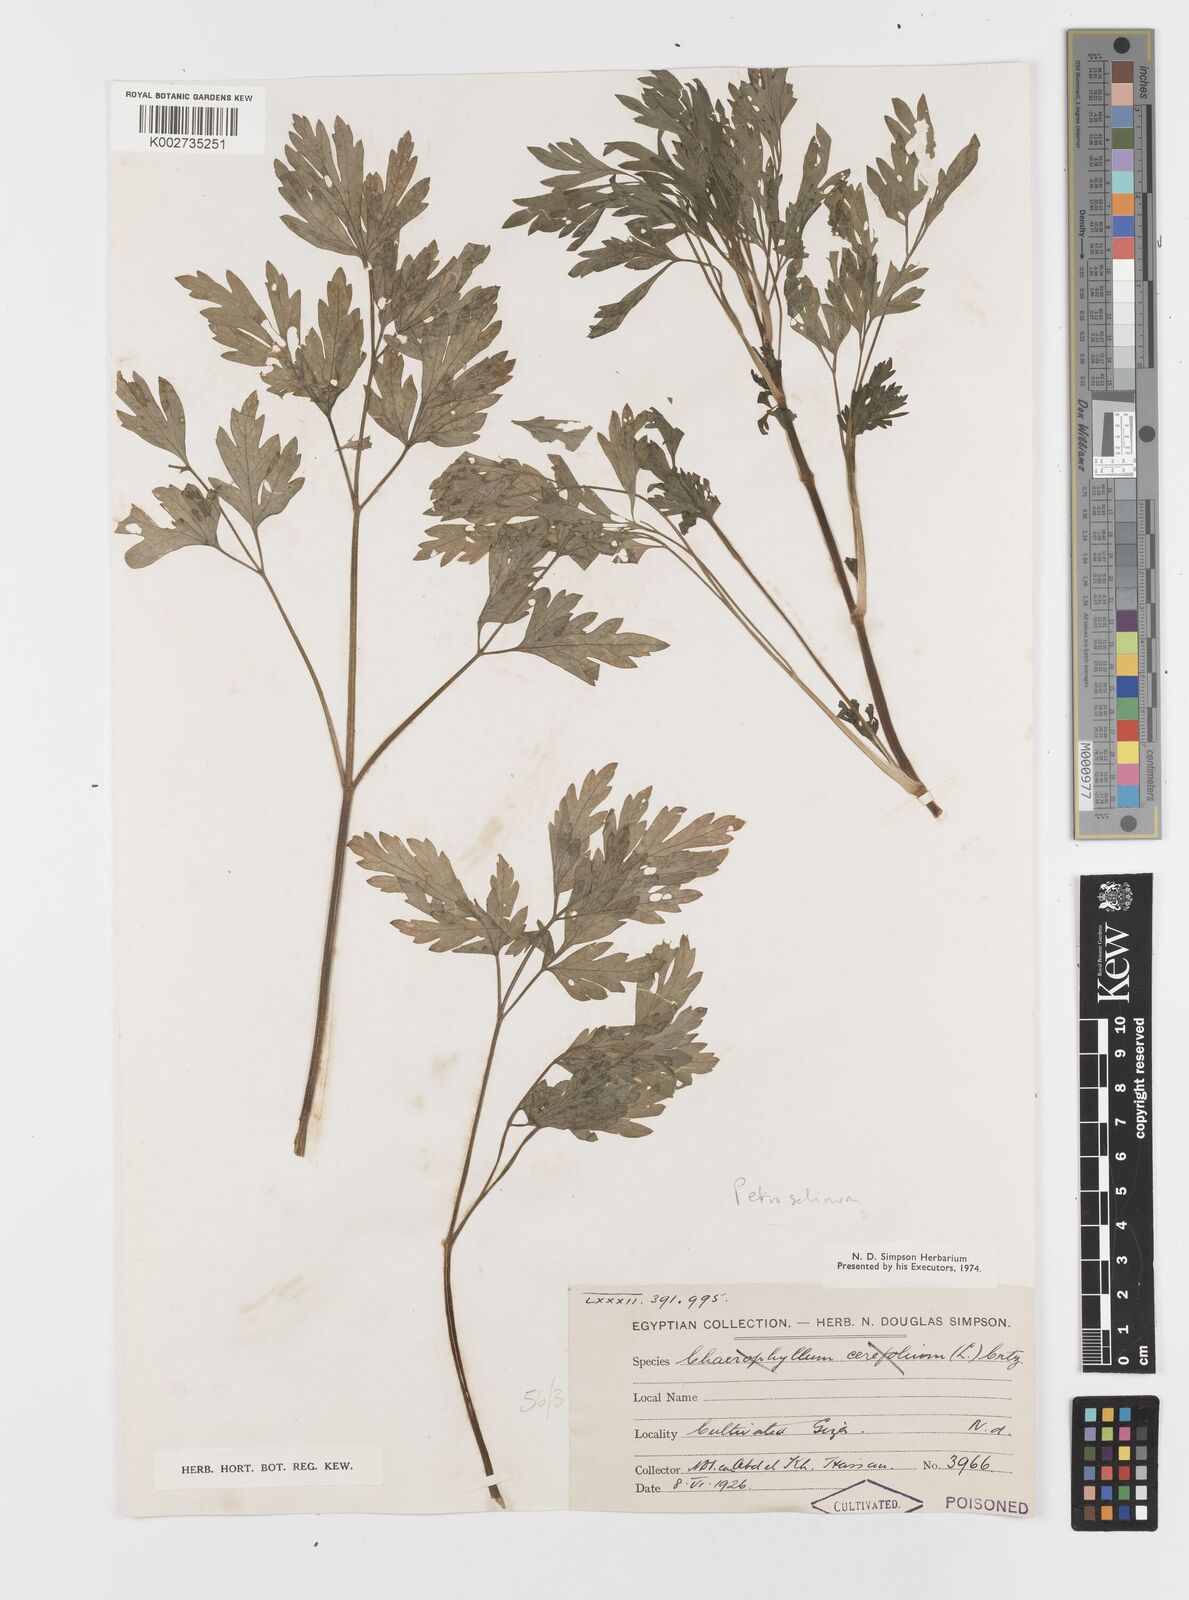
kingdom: Plantae
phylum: Tracheophyta
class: Magnoliopsida
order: Apiales
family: Apiaceae
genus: Petroselinum
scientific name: Petroselinum crispum
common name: Parsley
